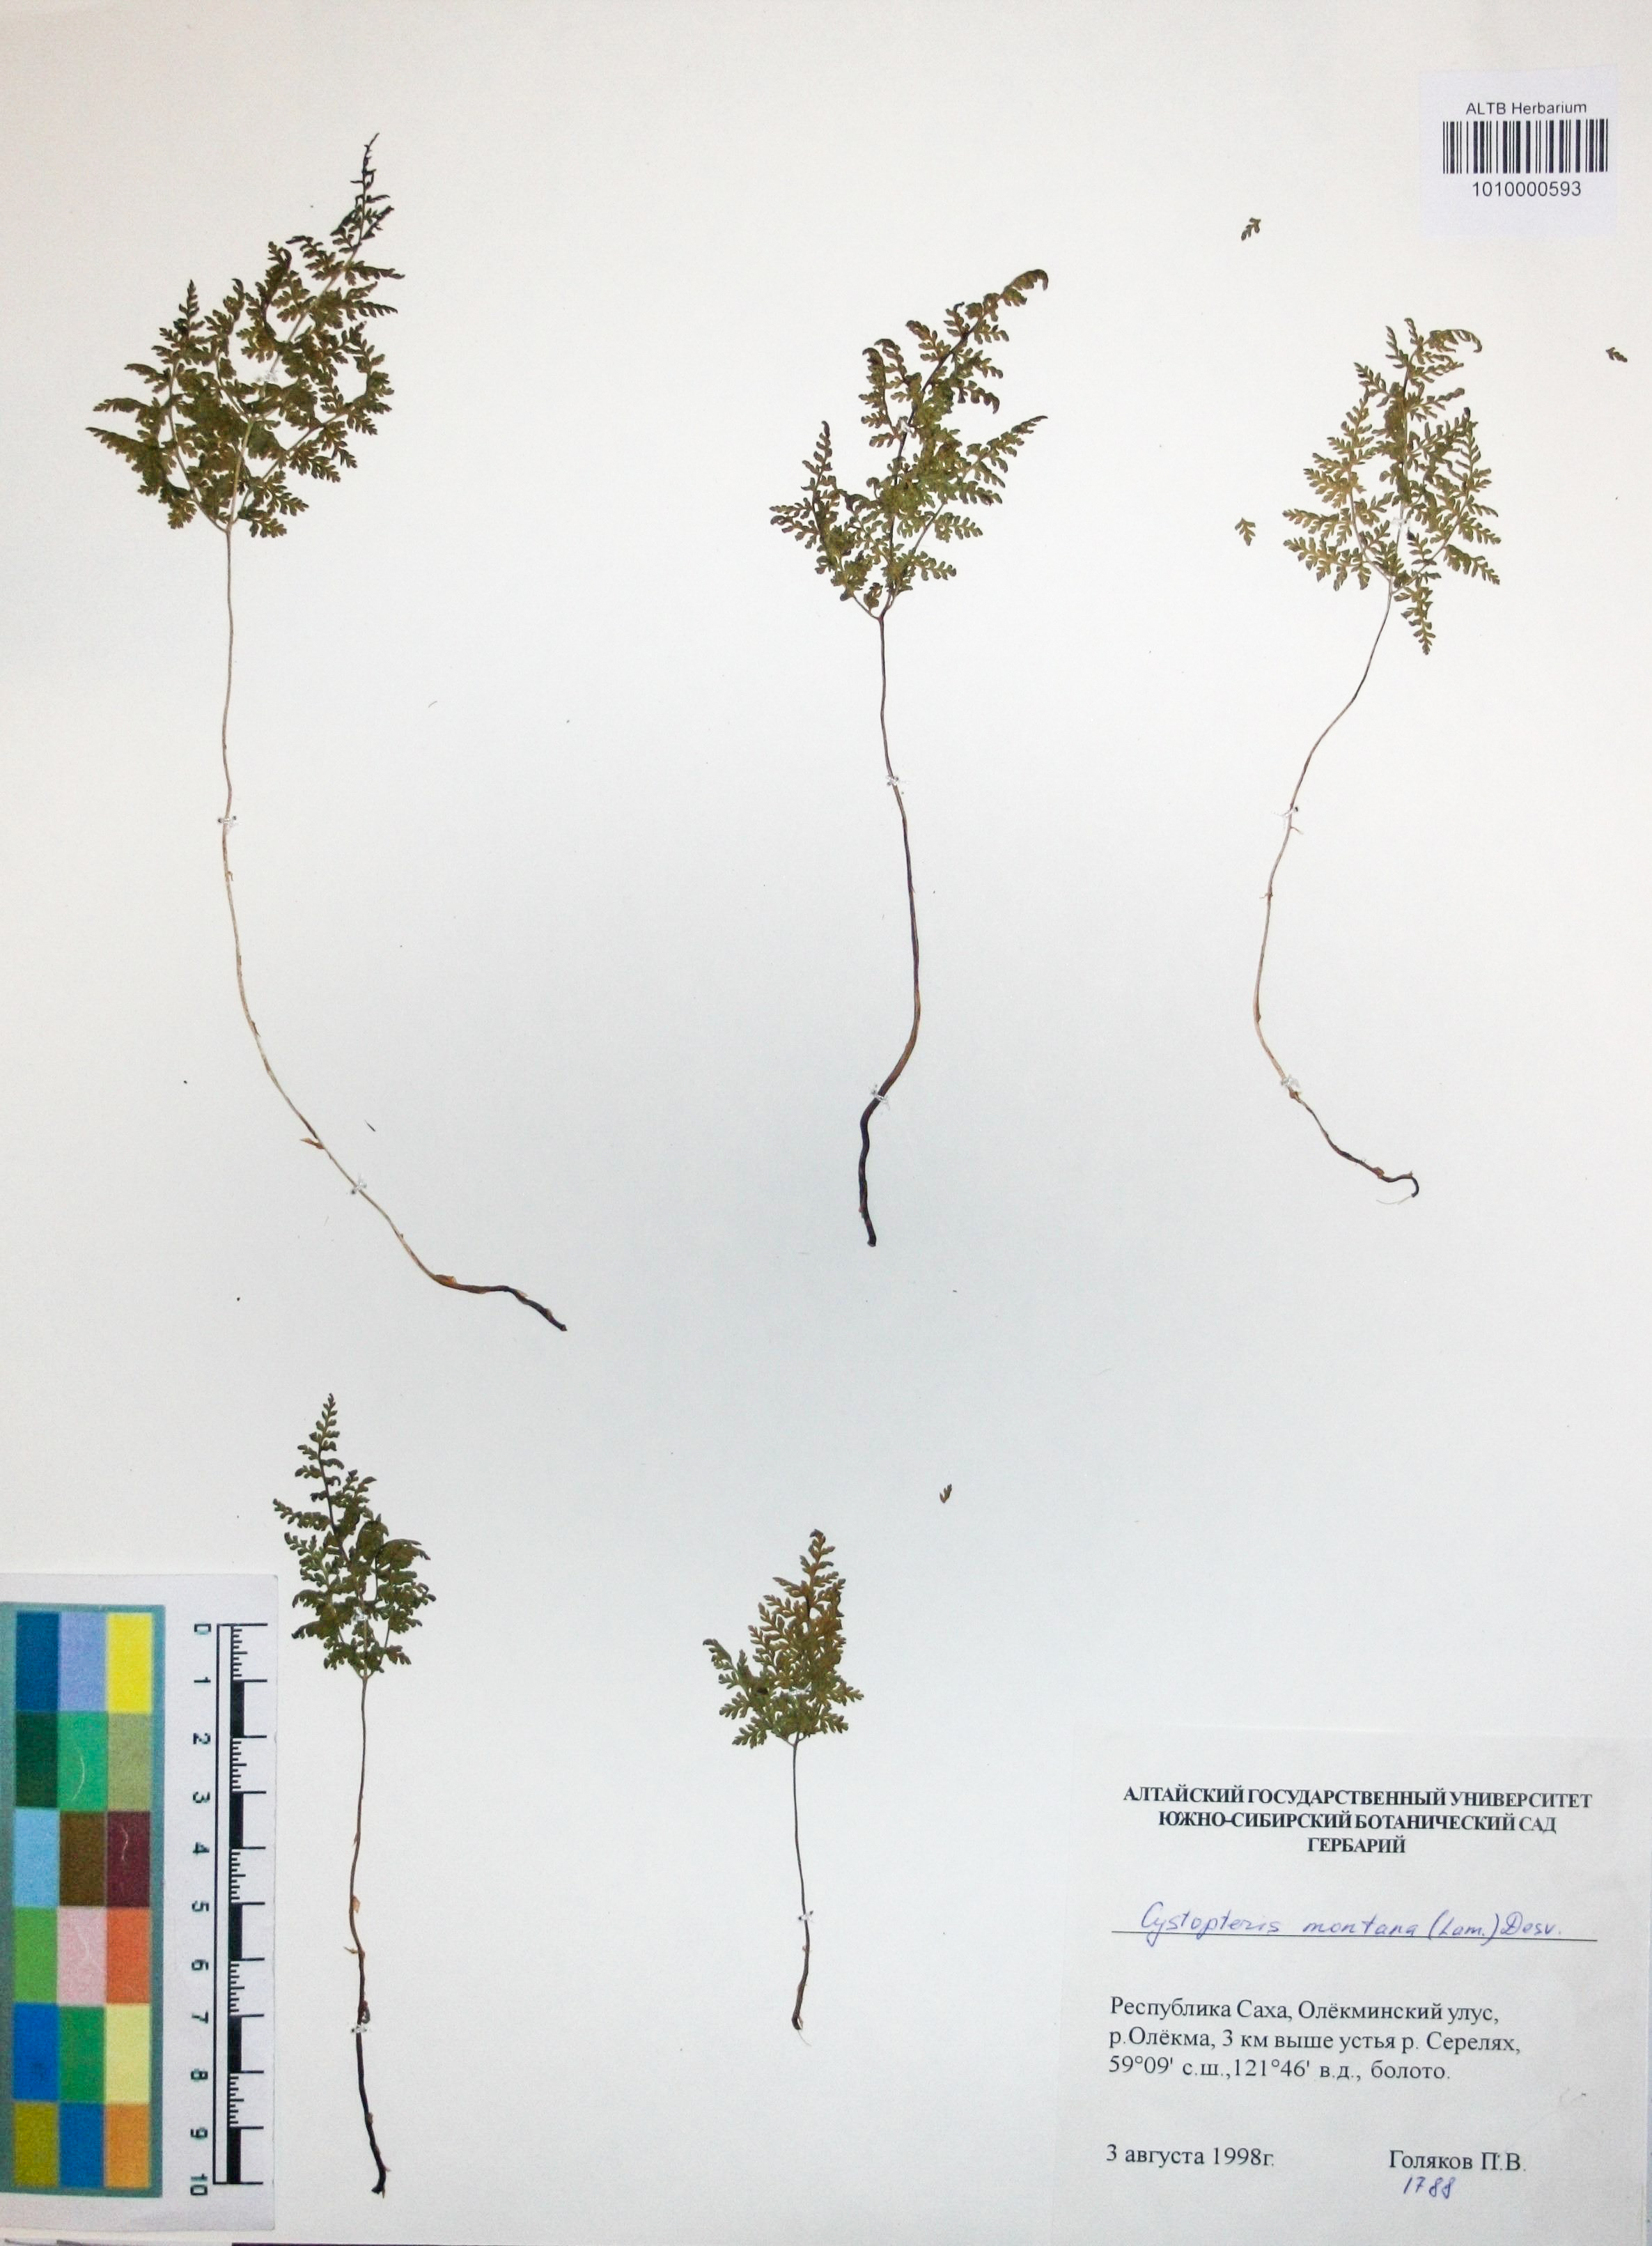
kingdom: Plantae
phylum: Tracheophyta
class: Polypodiopsida
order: Polypodiales
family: Cystopteridaceae
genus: Cystopteris
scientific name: Cystopteris montana
